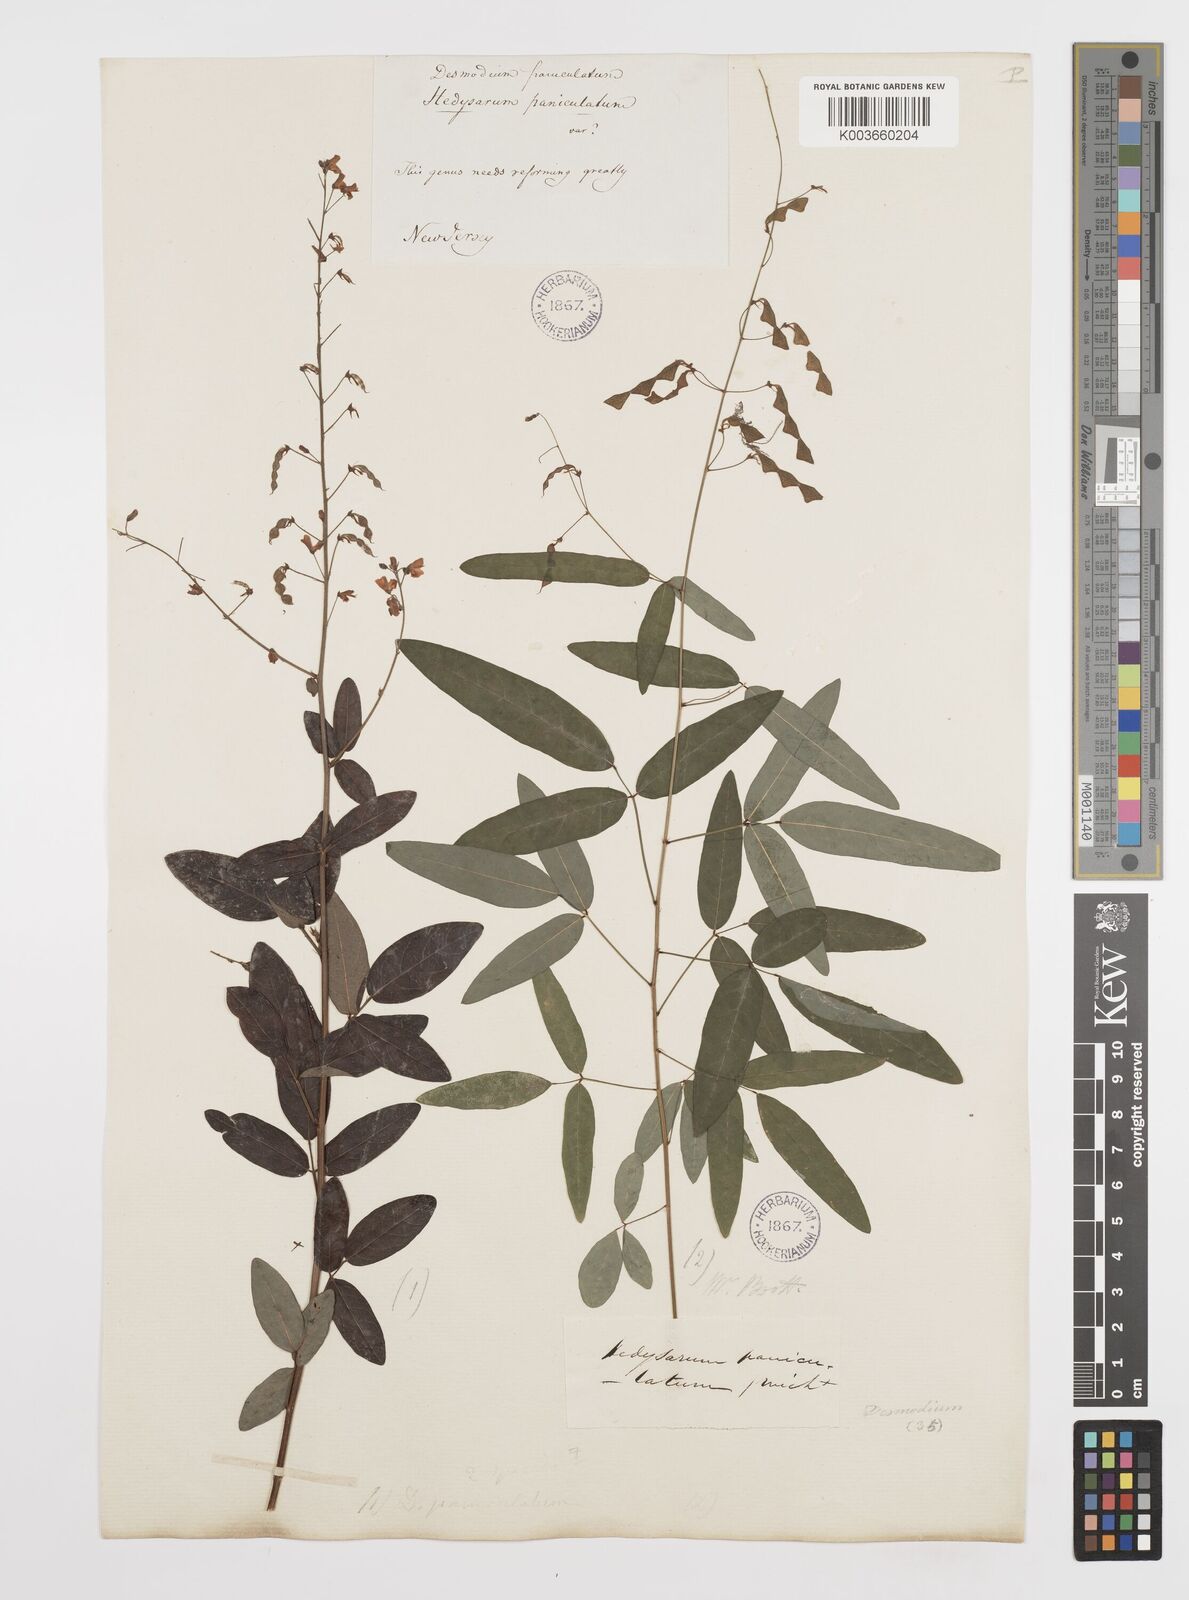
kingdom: Plantae
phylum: Tracheophyta
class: Magnoliopsida
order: Fabales
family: Fabaceae
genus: Desmodium
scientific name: Desmodium paniculatum
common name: Panicled tick-clover
